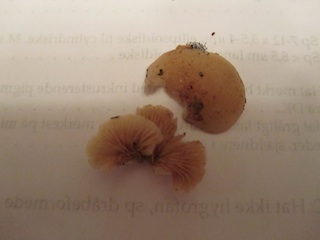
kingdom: Fungi
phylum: Basidiomycota
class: Agaricomycetes
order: Agaricales
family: Crepidotaceae
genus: Crepidotus
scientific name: Crepidotus calolepis
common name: småskællet muslingesvamp
